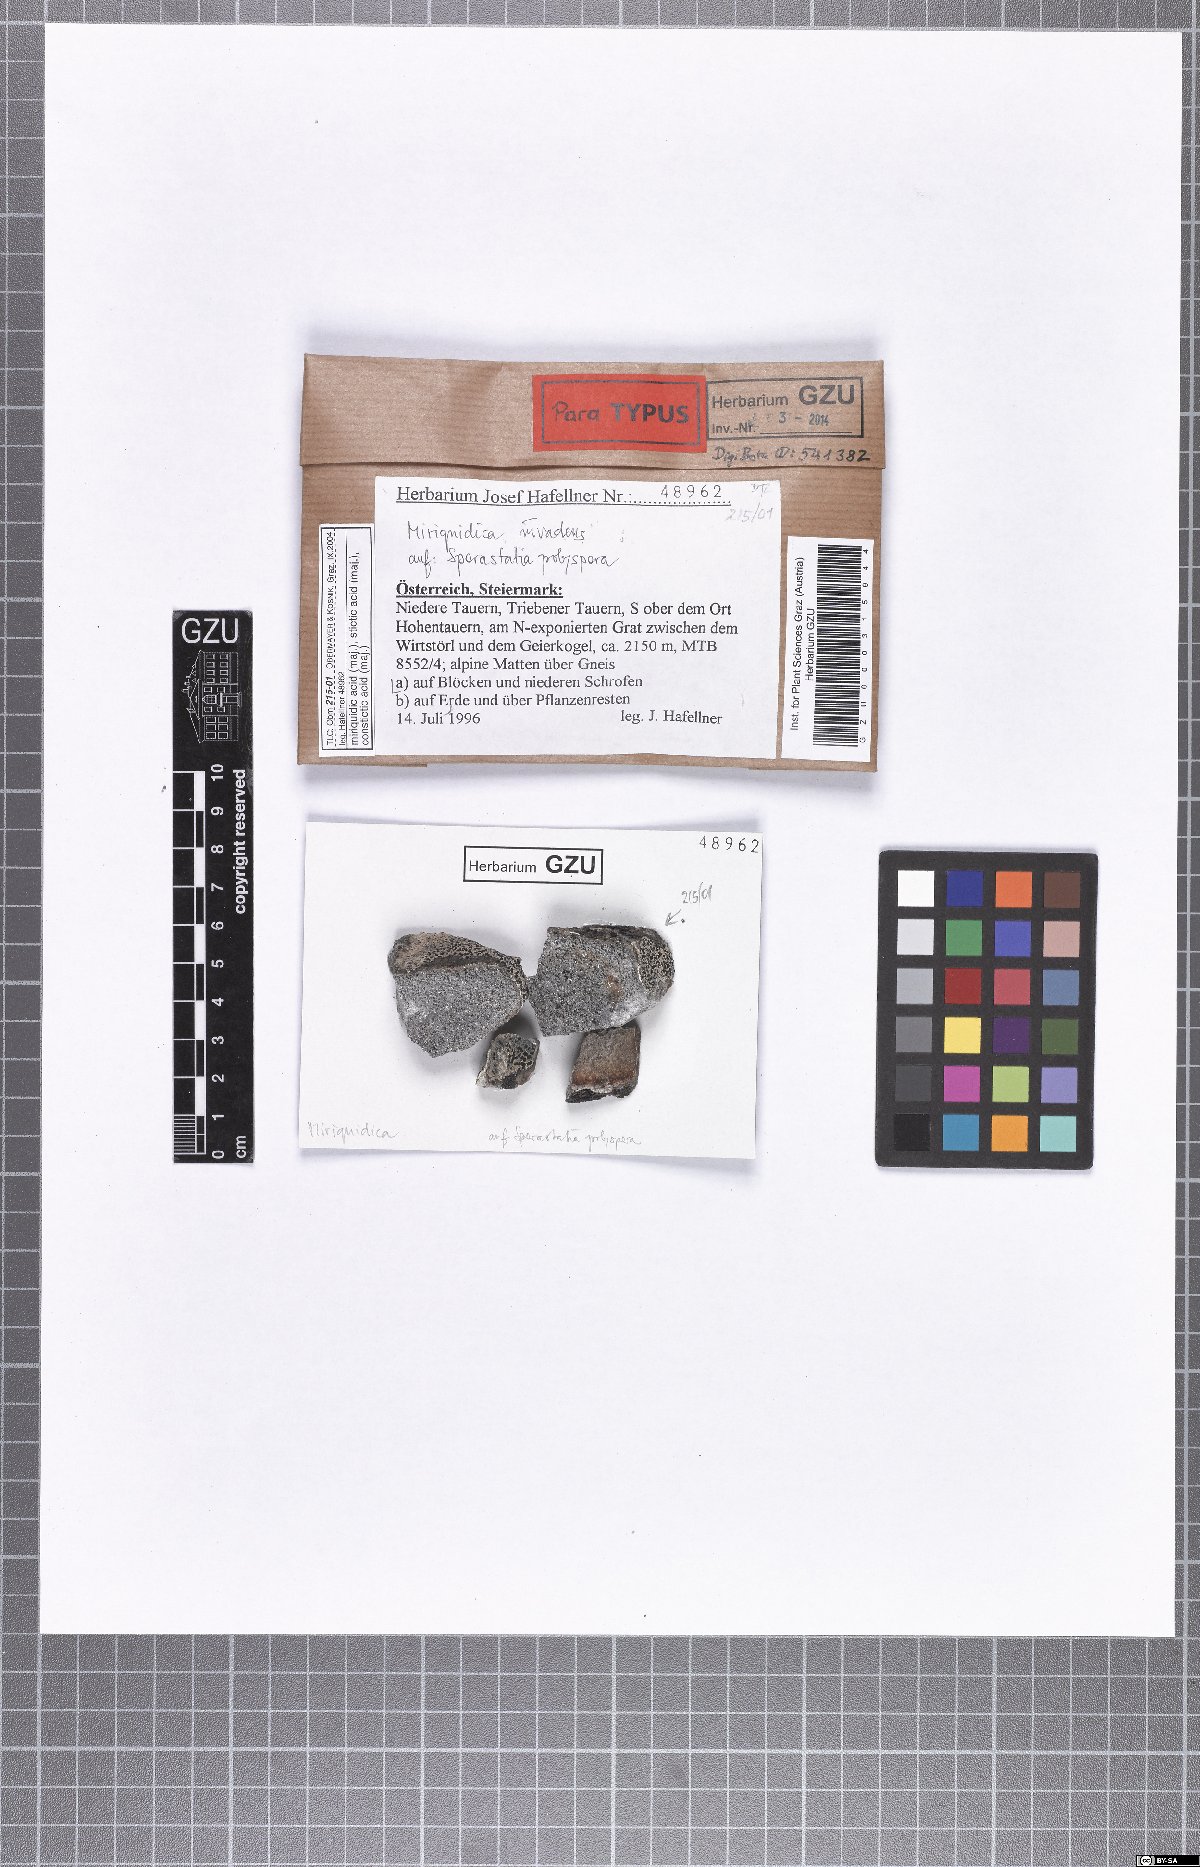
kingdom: Fungi
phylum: Ascomycota
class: Lecanoromycetes
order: Lecanorales
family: Lecanoraceae
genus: Miriquidica
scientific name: Miriquidica invadens
